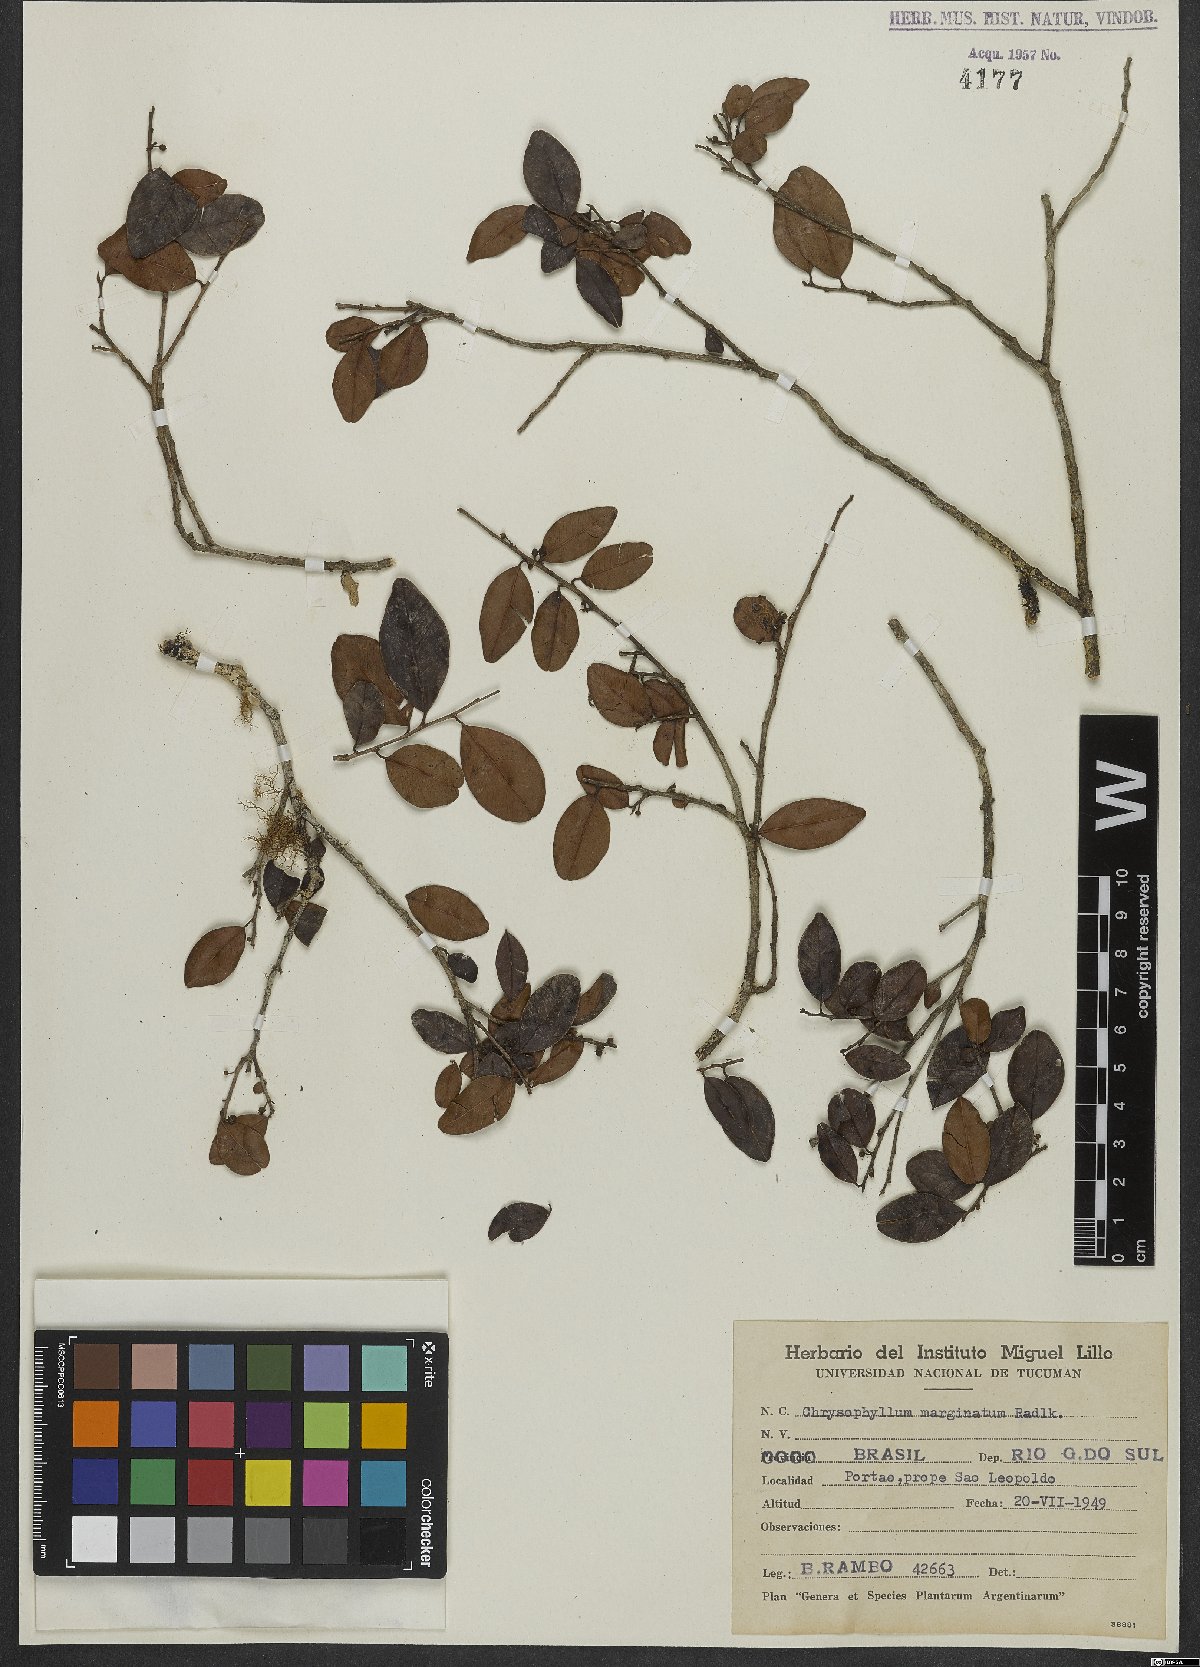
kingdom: Plantae
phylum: Tracheophyta
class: Magnoliopsida
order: Ericales
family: Sapotaceae
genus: Chrysophyllum
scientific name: Chrysophyllum marginatum
